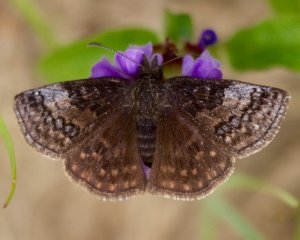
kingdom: Animalia
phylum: Arthropoda
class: Insecta
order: Lepidoptera
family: Hesperiidae
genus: Erynnis
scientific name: Erynnis icelus
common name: Dreamy Duskywing
